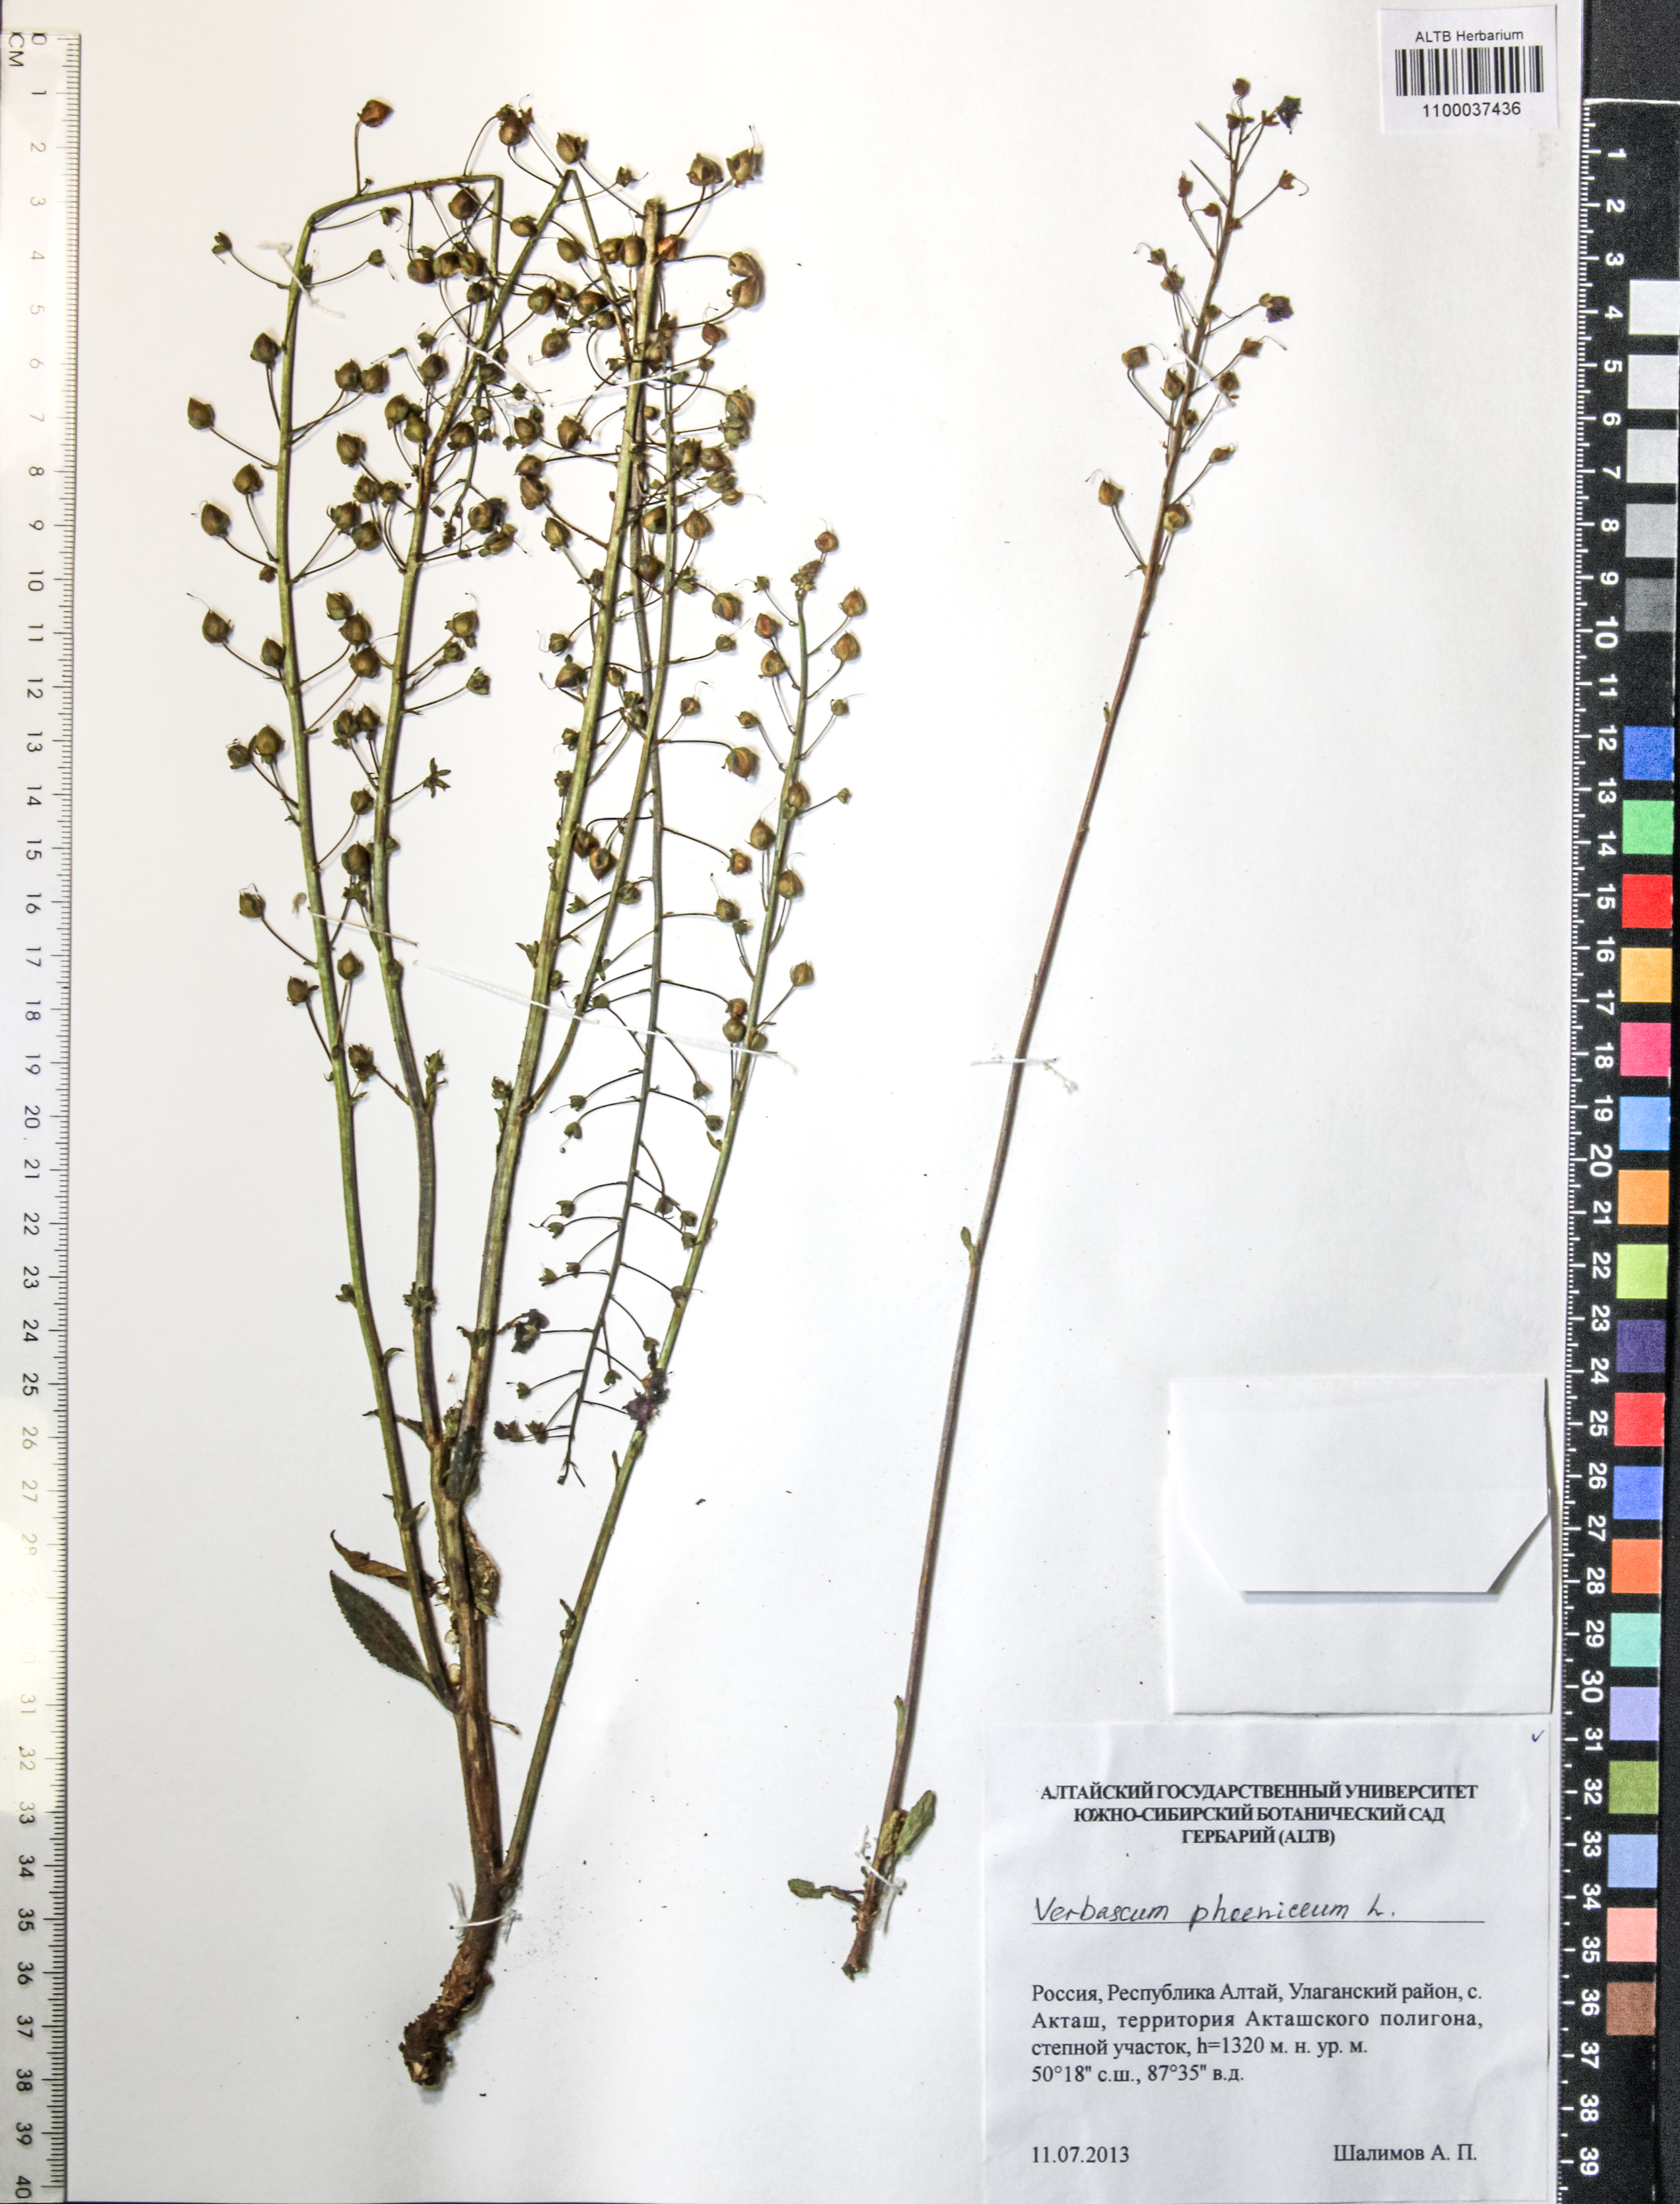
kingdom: Plantae
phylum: Tracheophyta
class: Magnoliopsida
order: Lamiales
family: Scrophulariaceae
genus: Verbascum
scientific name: Verbascum phoeniceum
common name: Purple mullein
